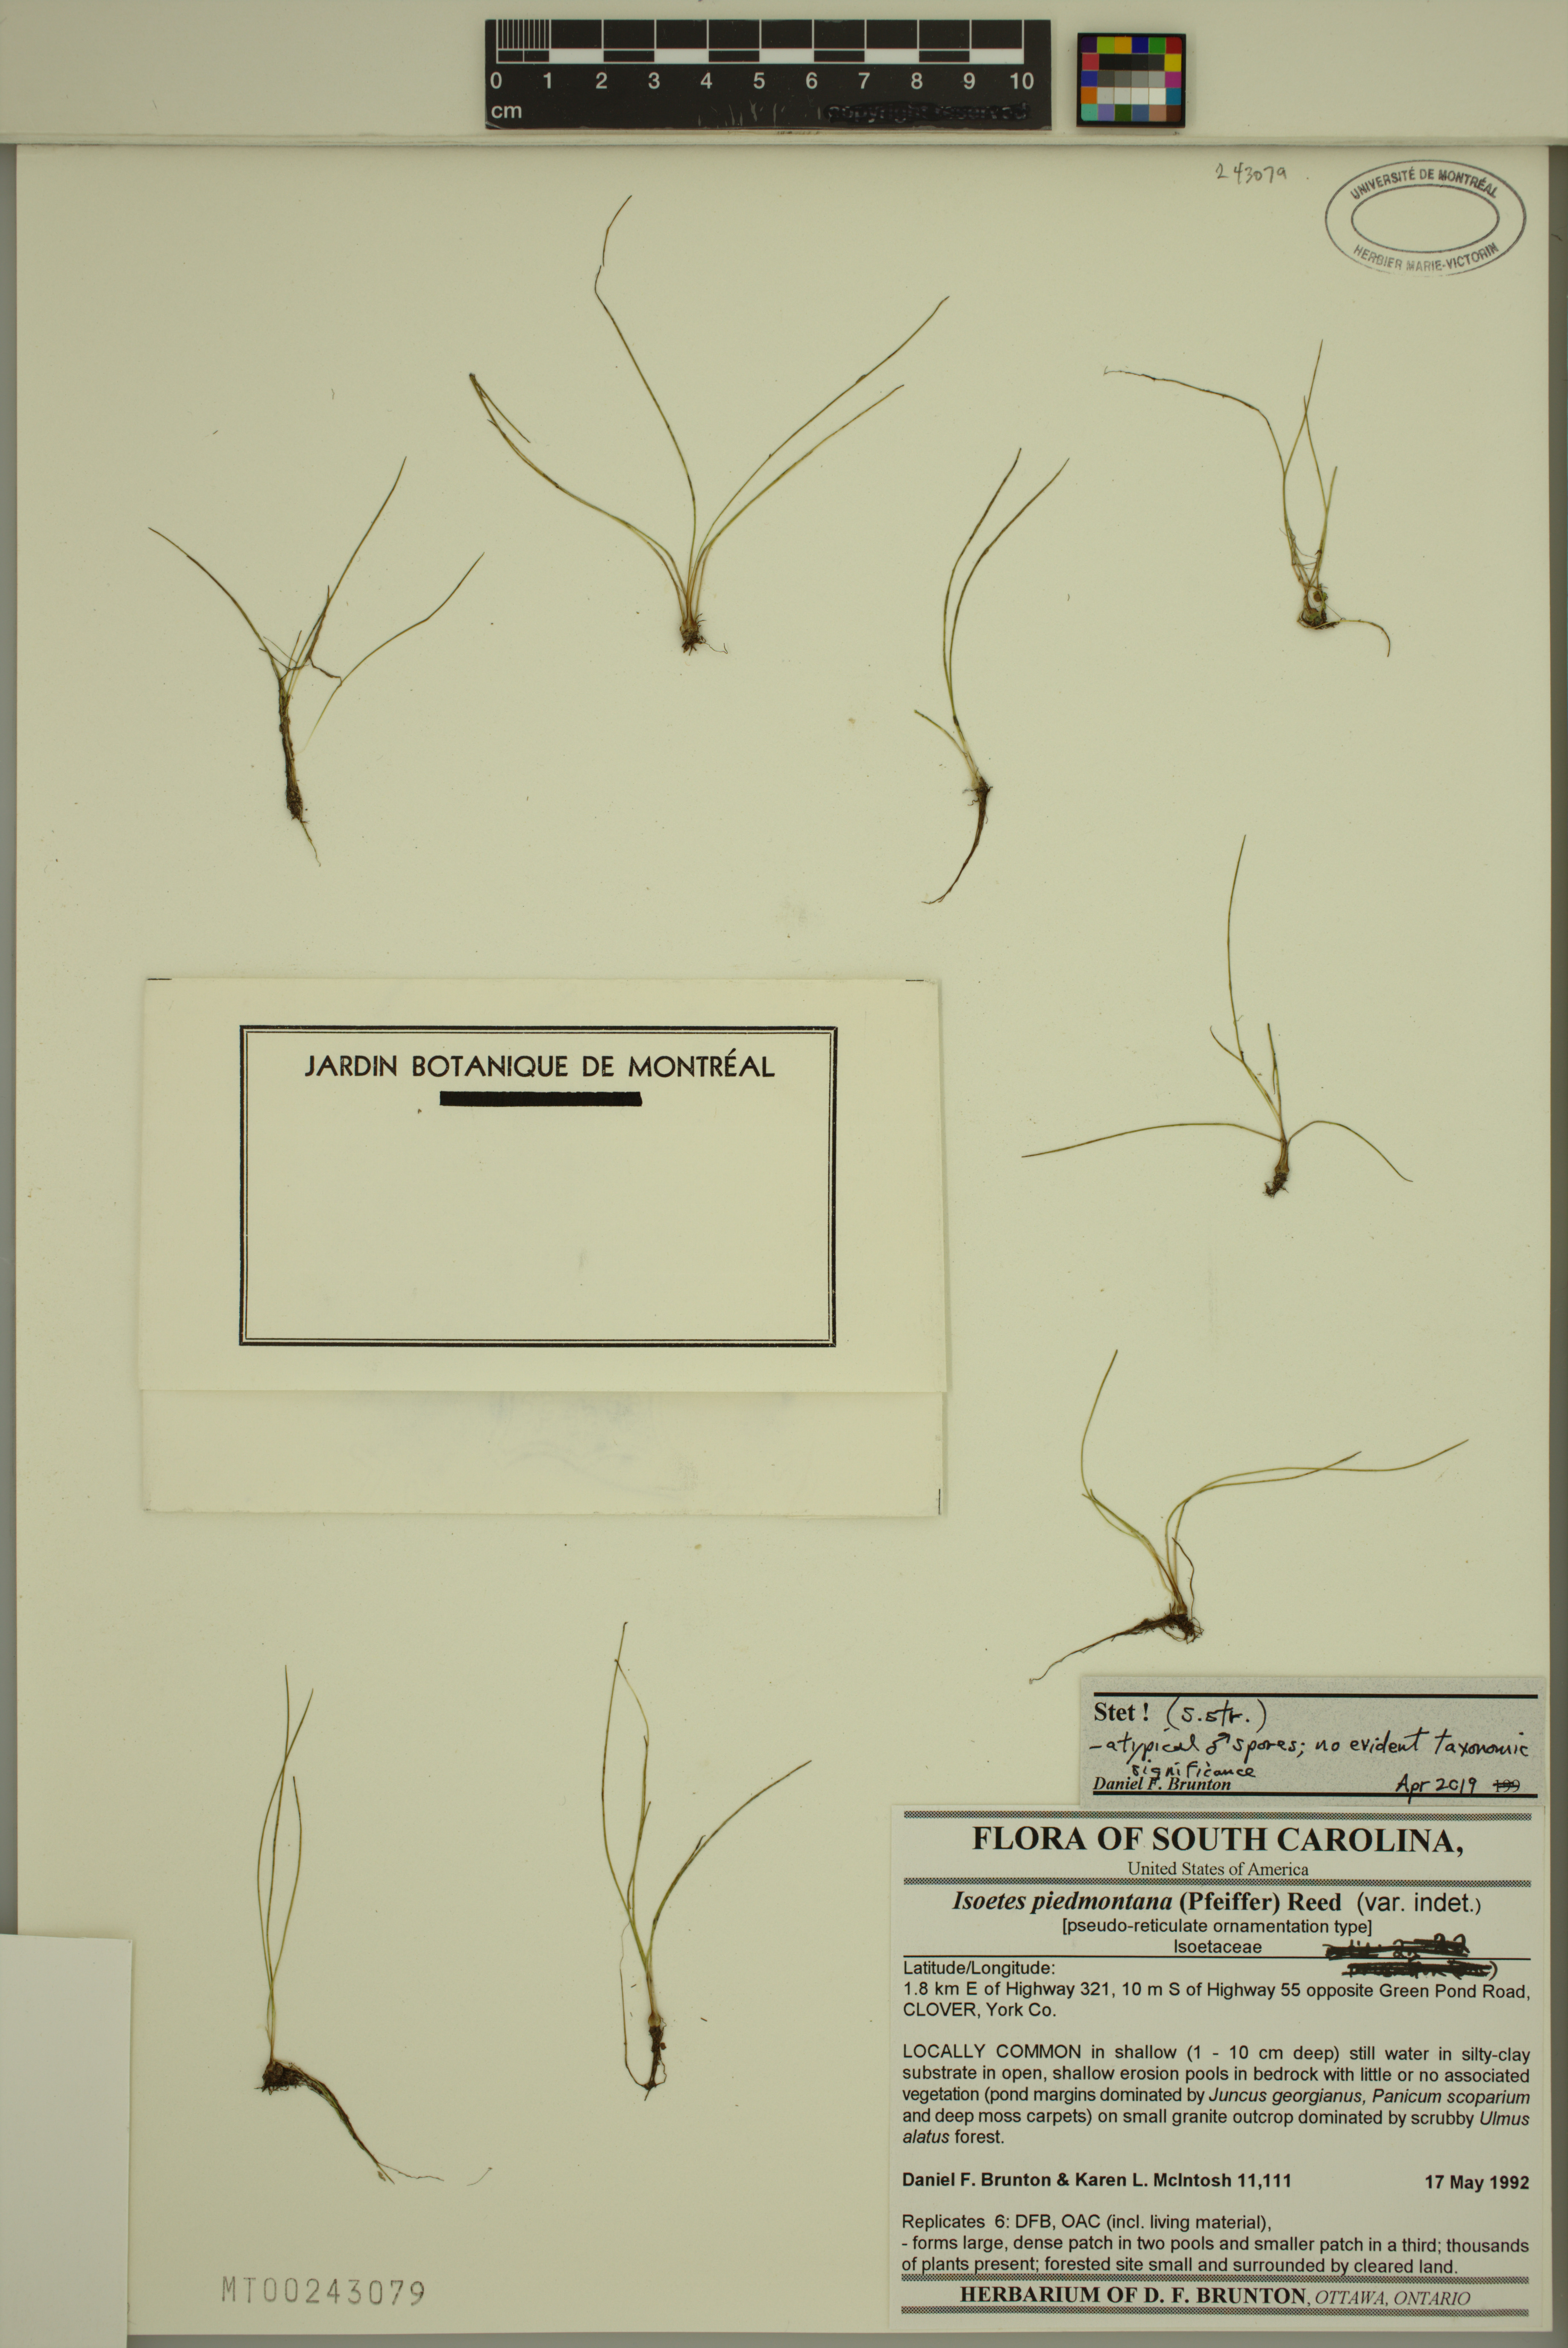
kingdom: Plantae
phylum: Tracheophyta
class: Lycopodiopsida
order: Isoetales
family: Isoetaceae
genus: Isoetes
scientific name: Isoetes virginica
